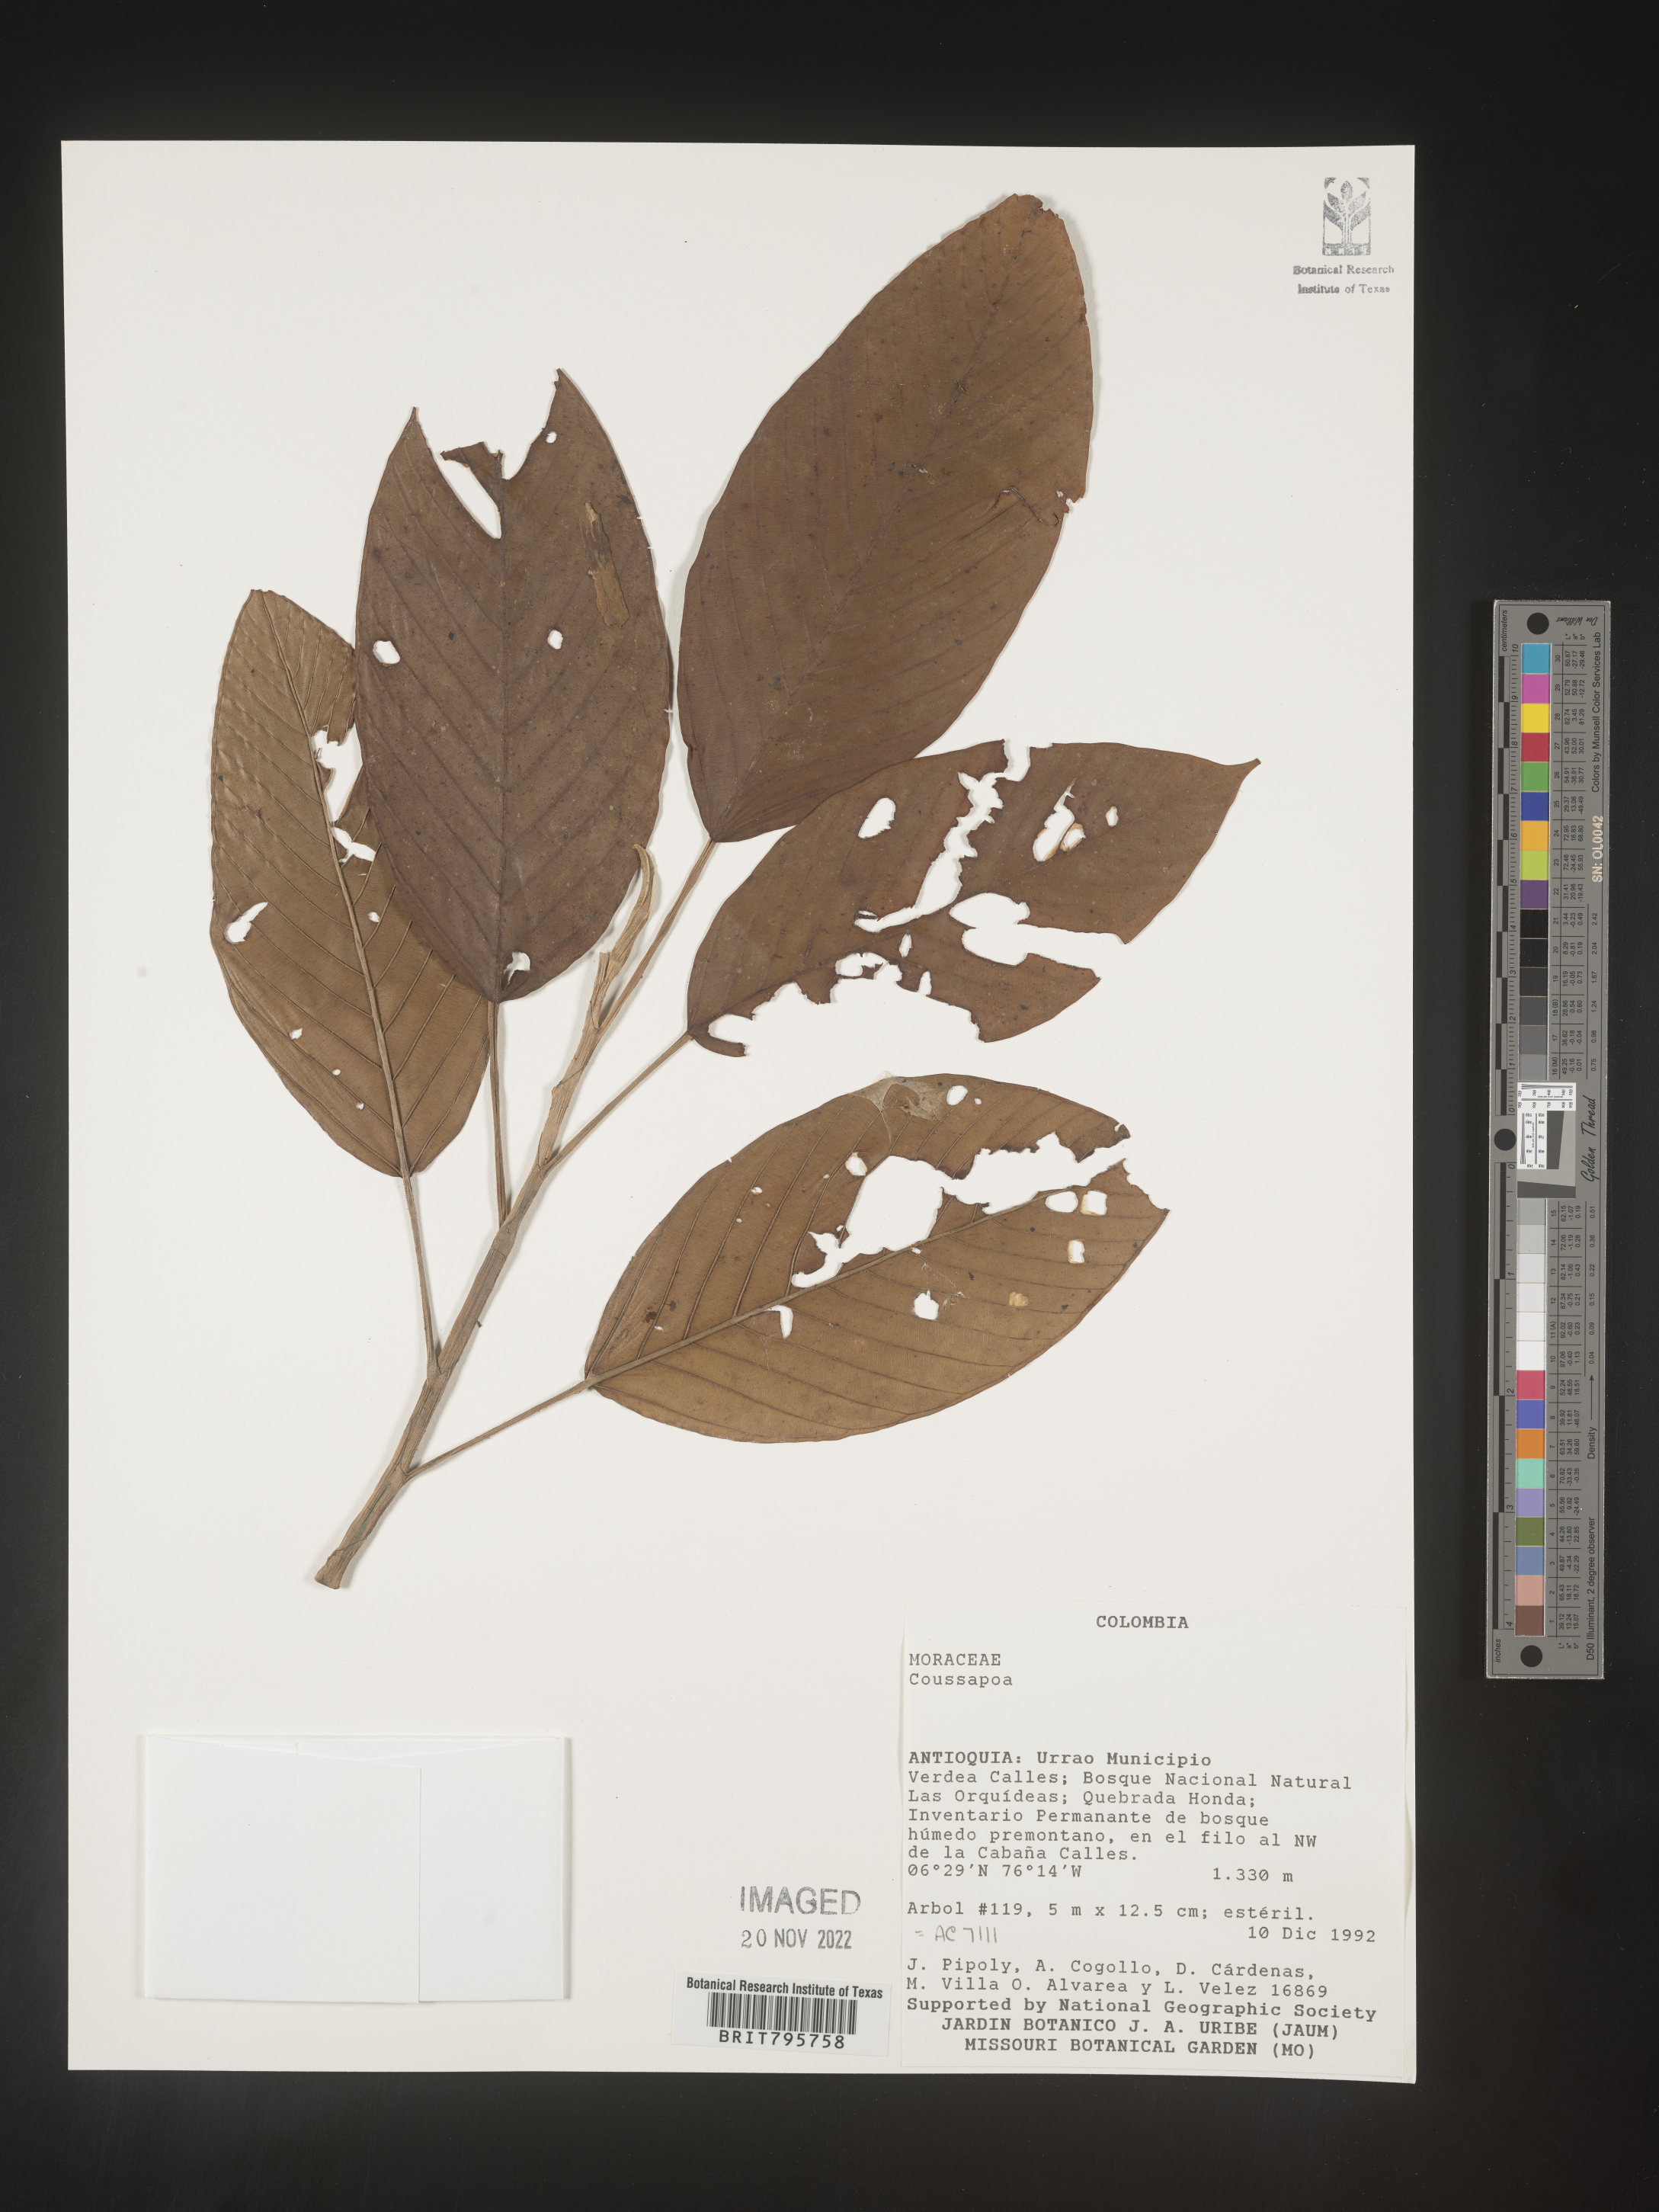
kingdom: Plantae
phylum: Tracheophyta
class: Magnoliopsida
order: Rosales
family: Urticaceae
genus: Coussapoa
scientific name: Coussapoa
